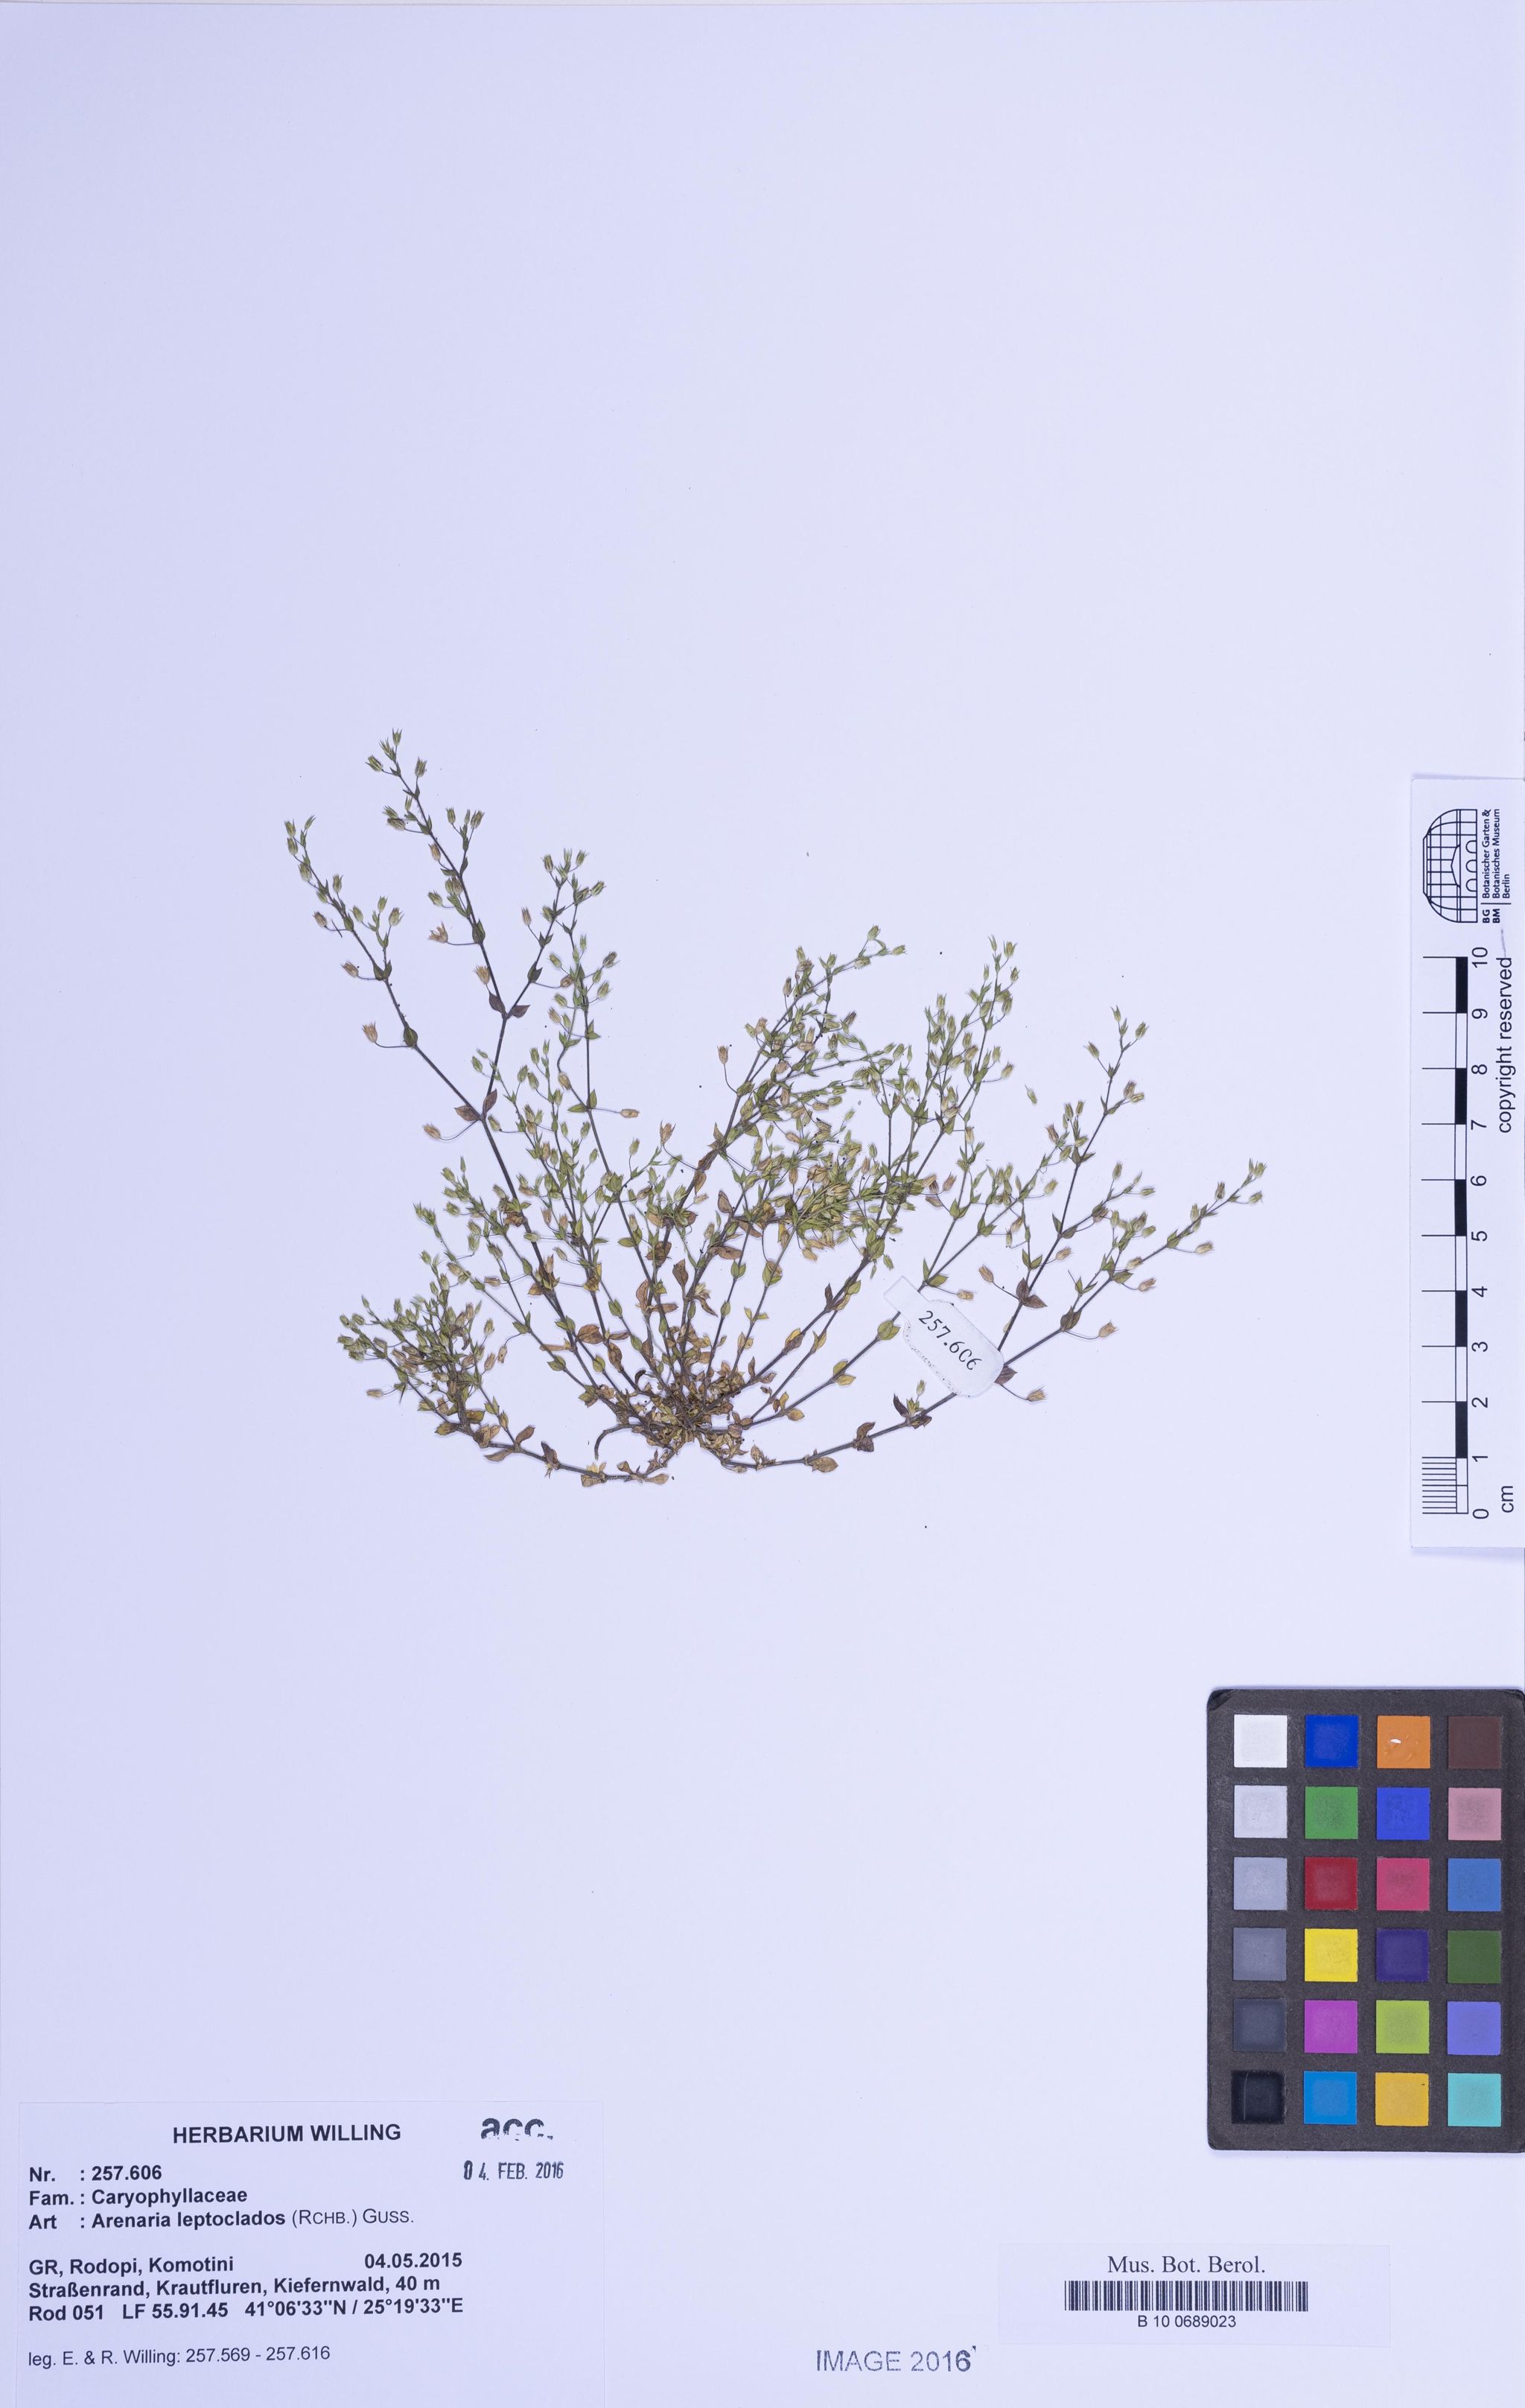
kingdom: Plantae
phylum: Tracheophyta
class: Magnoliopsida
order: Caryophyllales
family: Caryophyllaceae
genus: Arenaria
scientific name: Arenaria leptoclados
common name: Thyme-leaved sandwort
